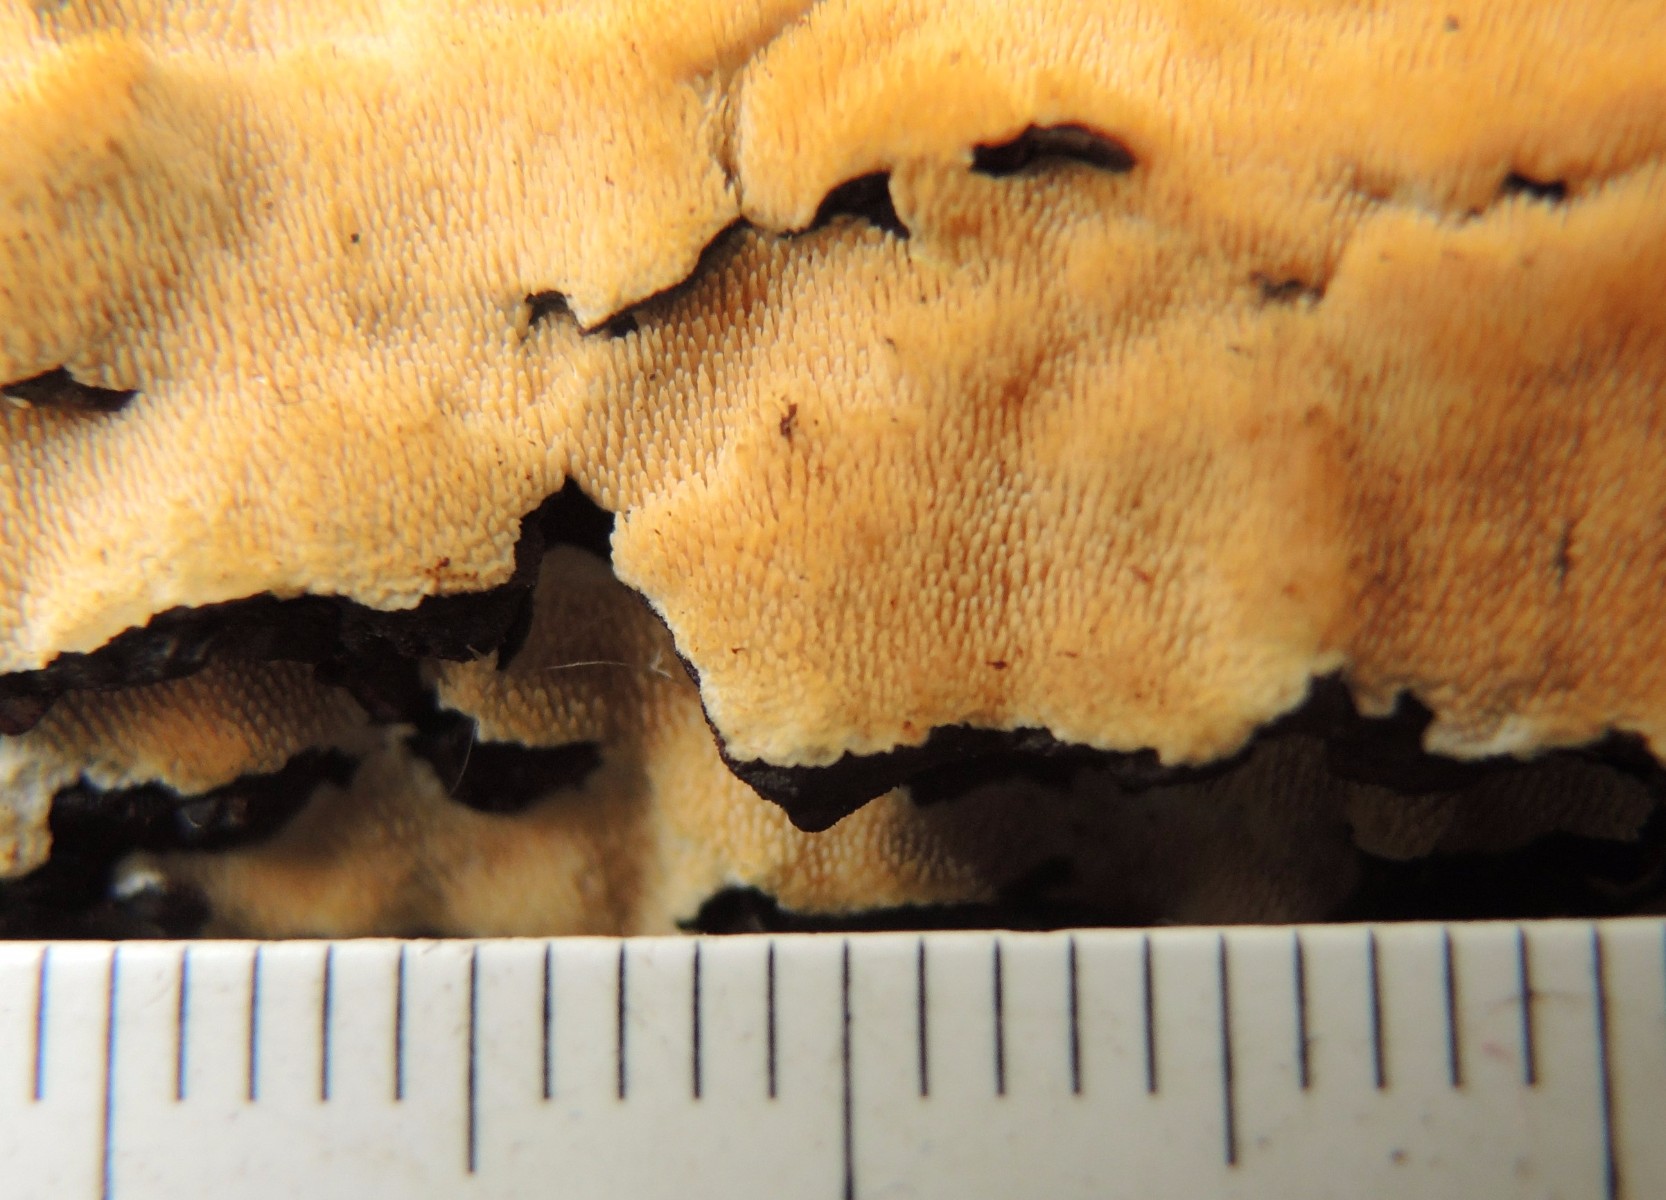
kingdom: Fungi
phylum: Basidiomycota
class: Agaricomycetes
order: Polyporales
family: Steccherinaceae
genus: Steccherinum
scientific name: Steccherinum ochraceum
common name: almindelig skønpig
